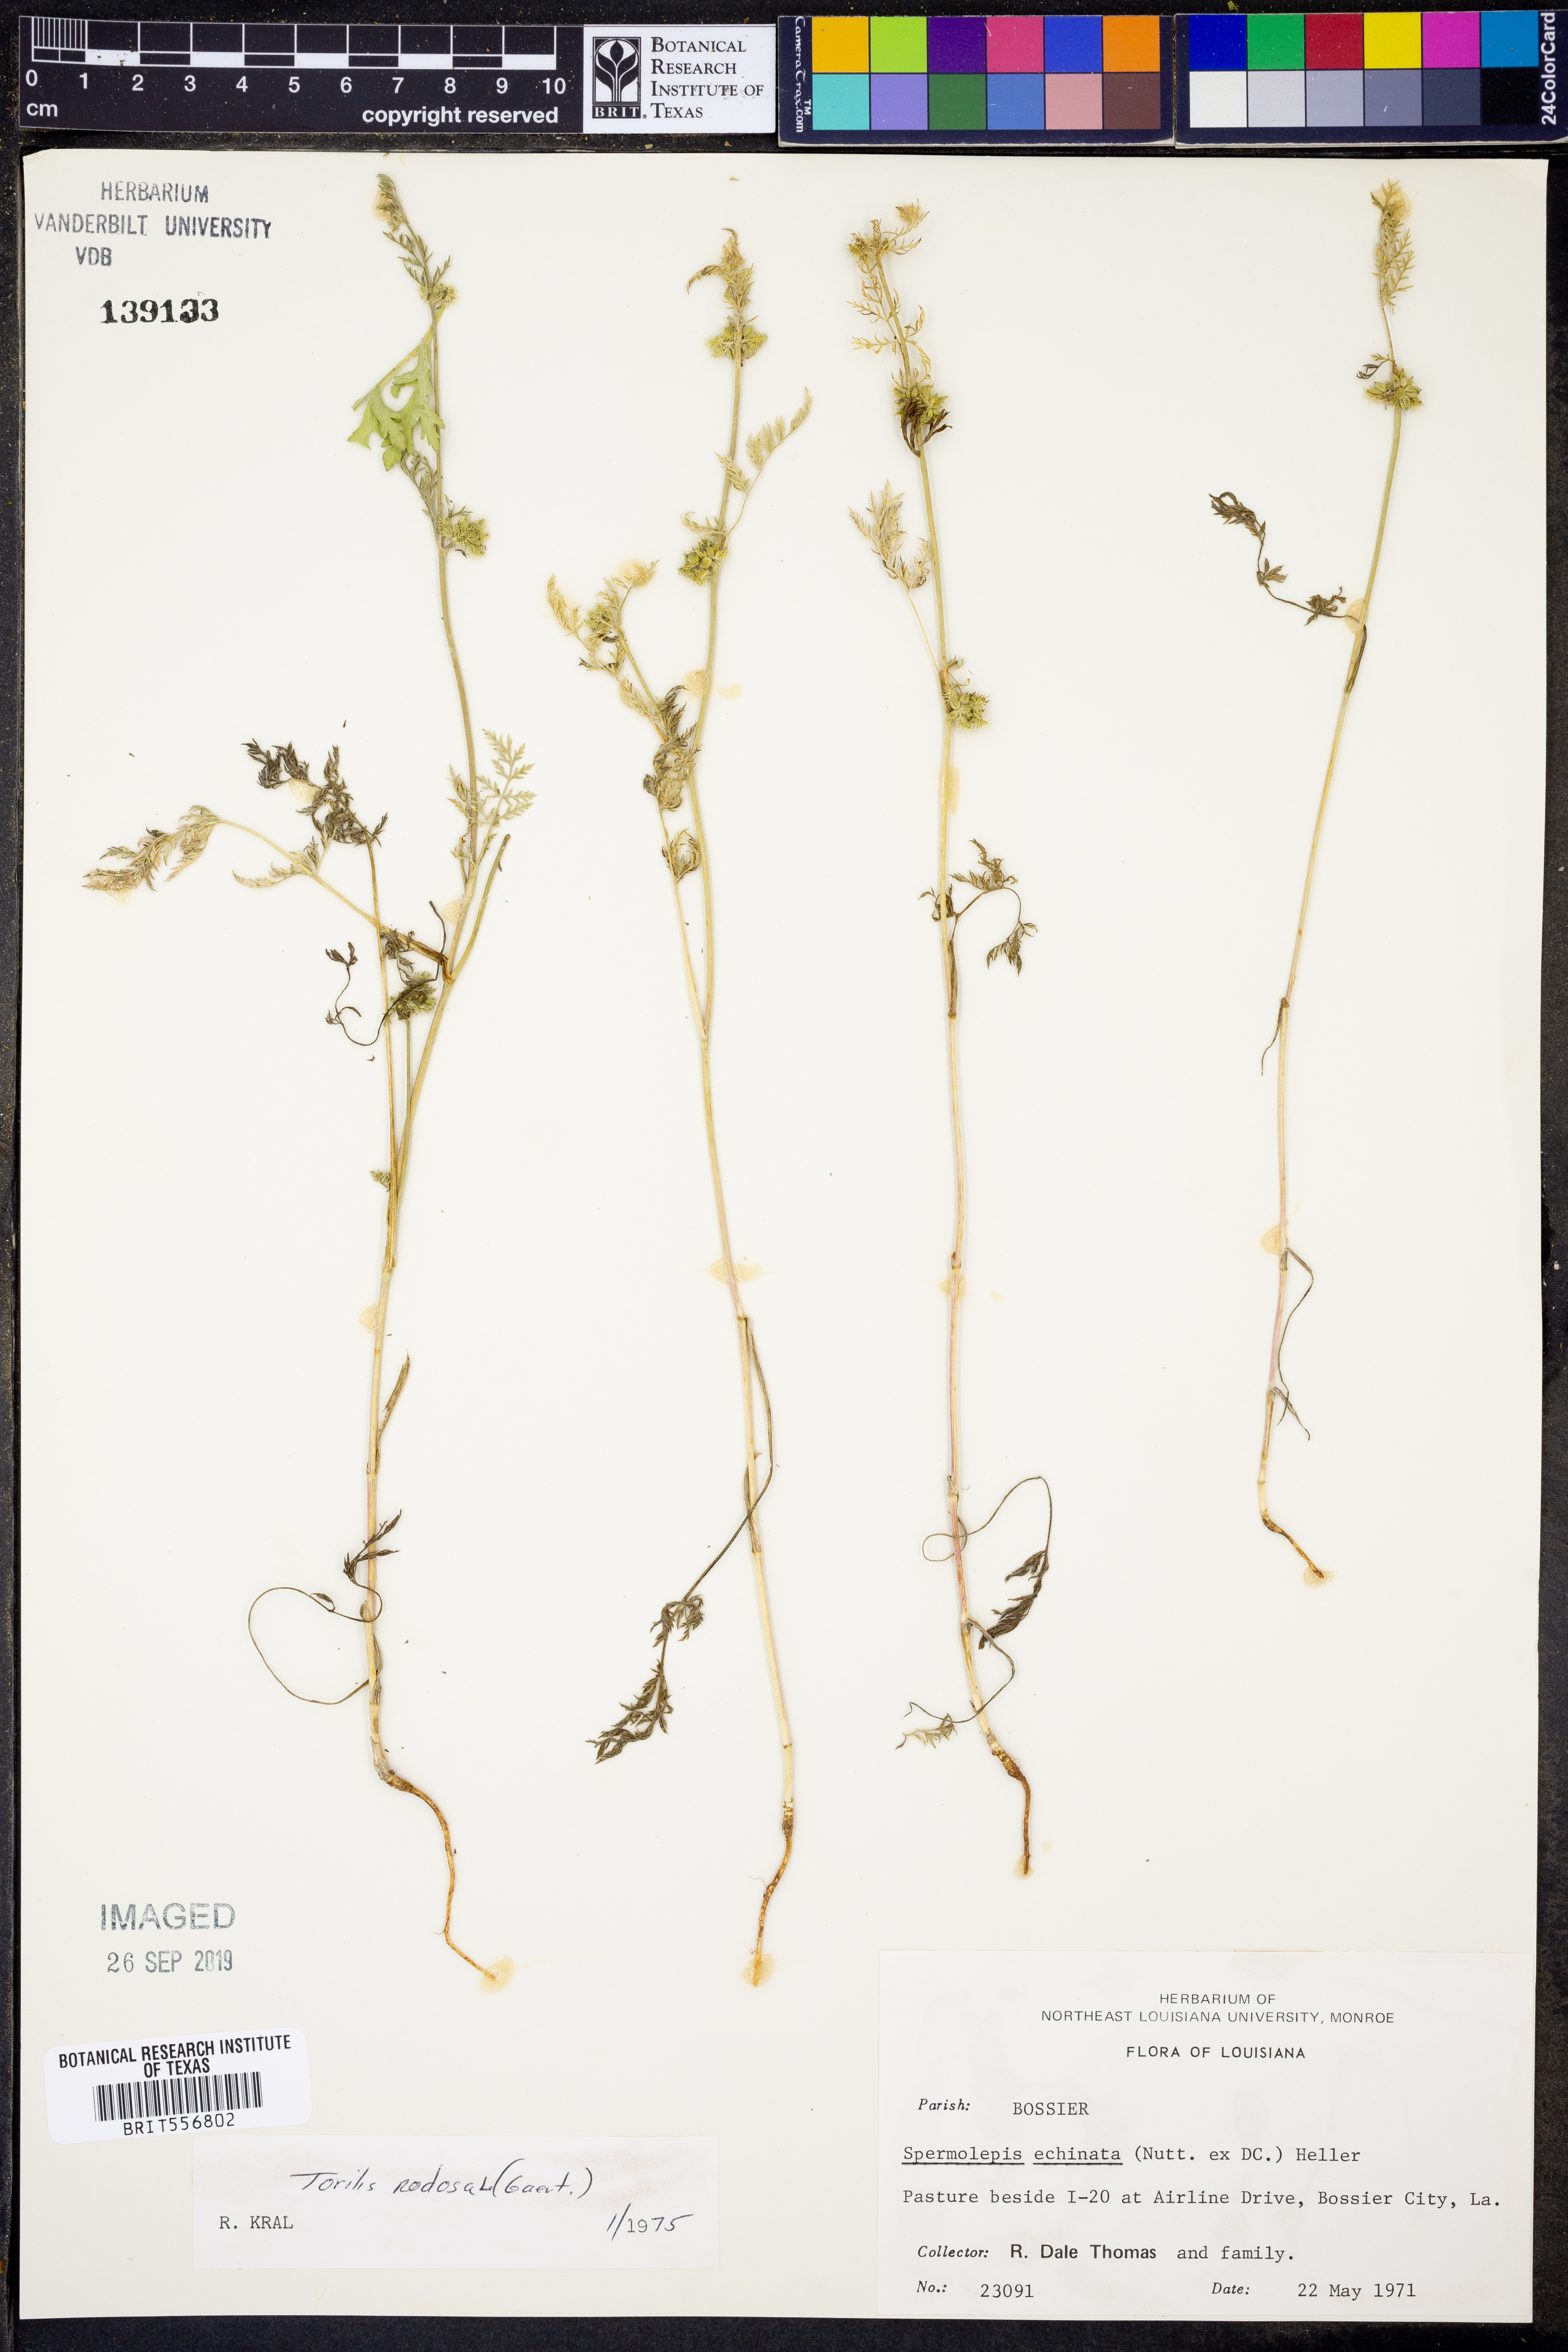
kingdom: Plantae
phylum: Tracheophyta
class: Magnoliopsida
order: Apiales
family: Apiaceae
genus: Spermolepis
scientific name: Spermolepis echinata
